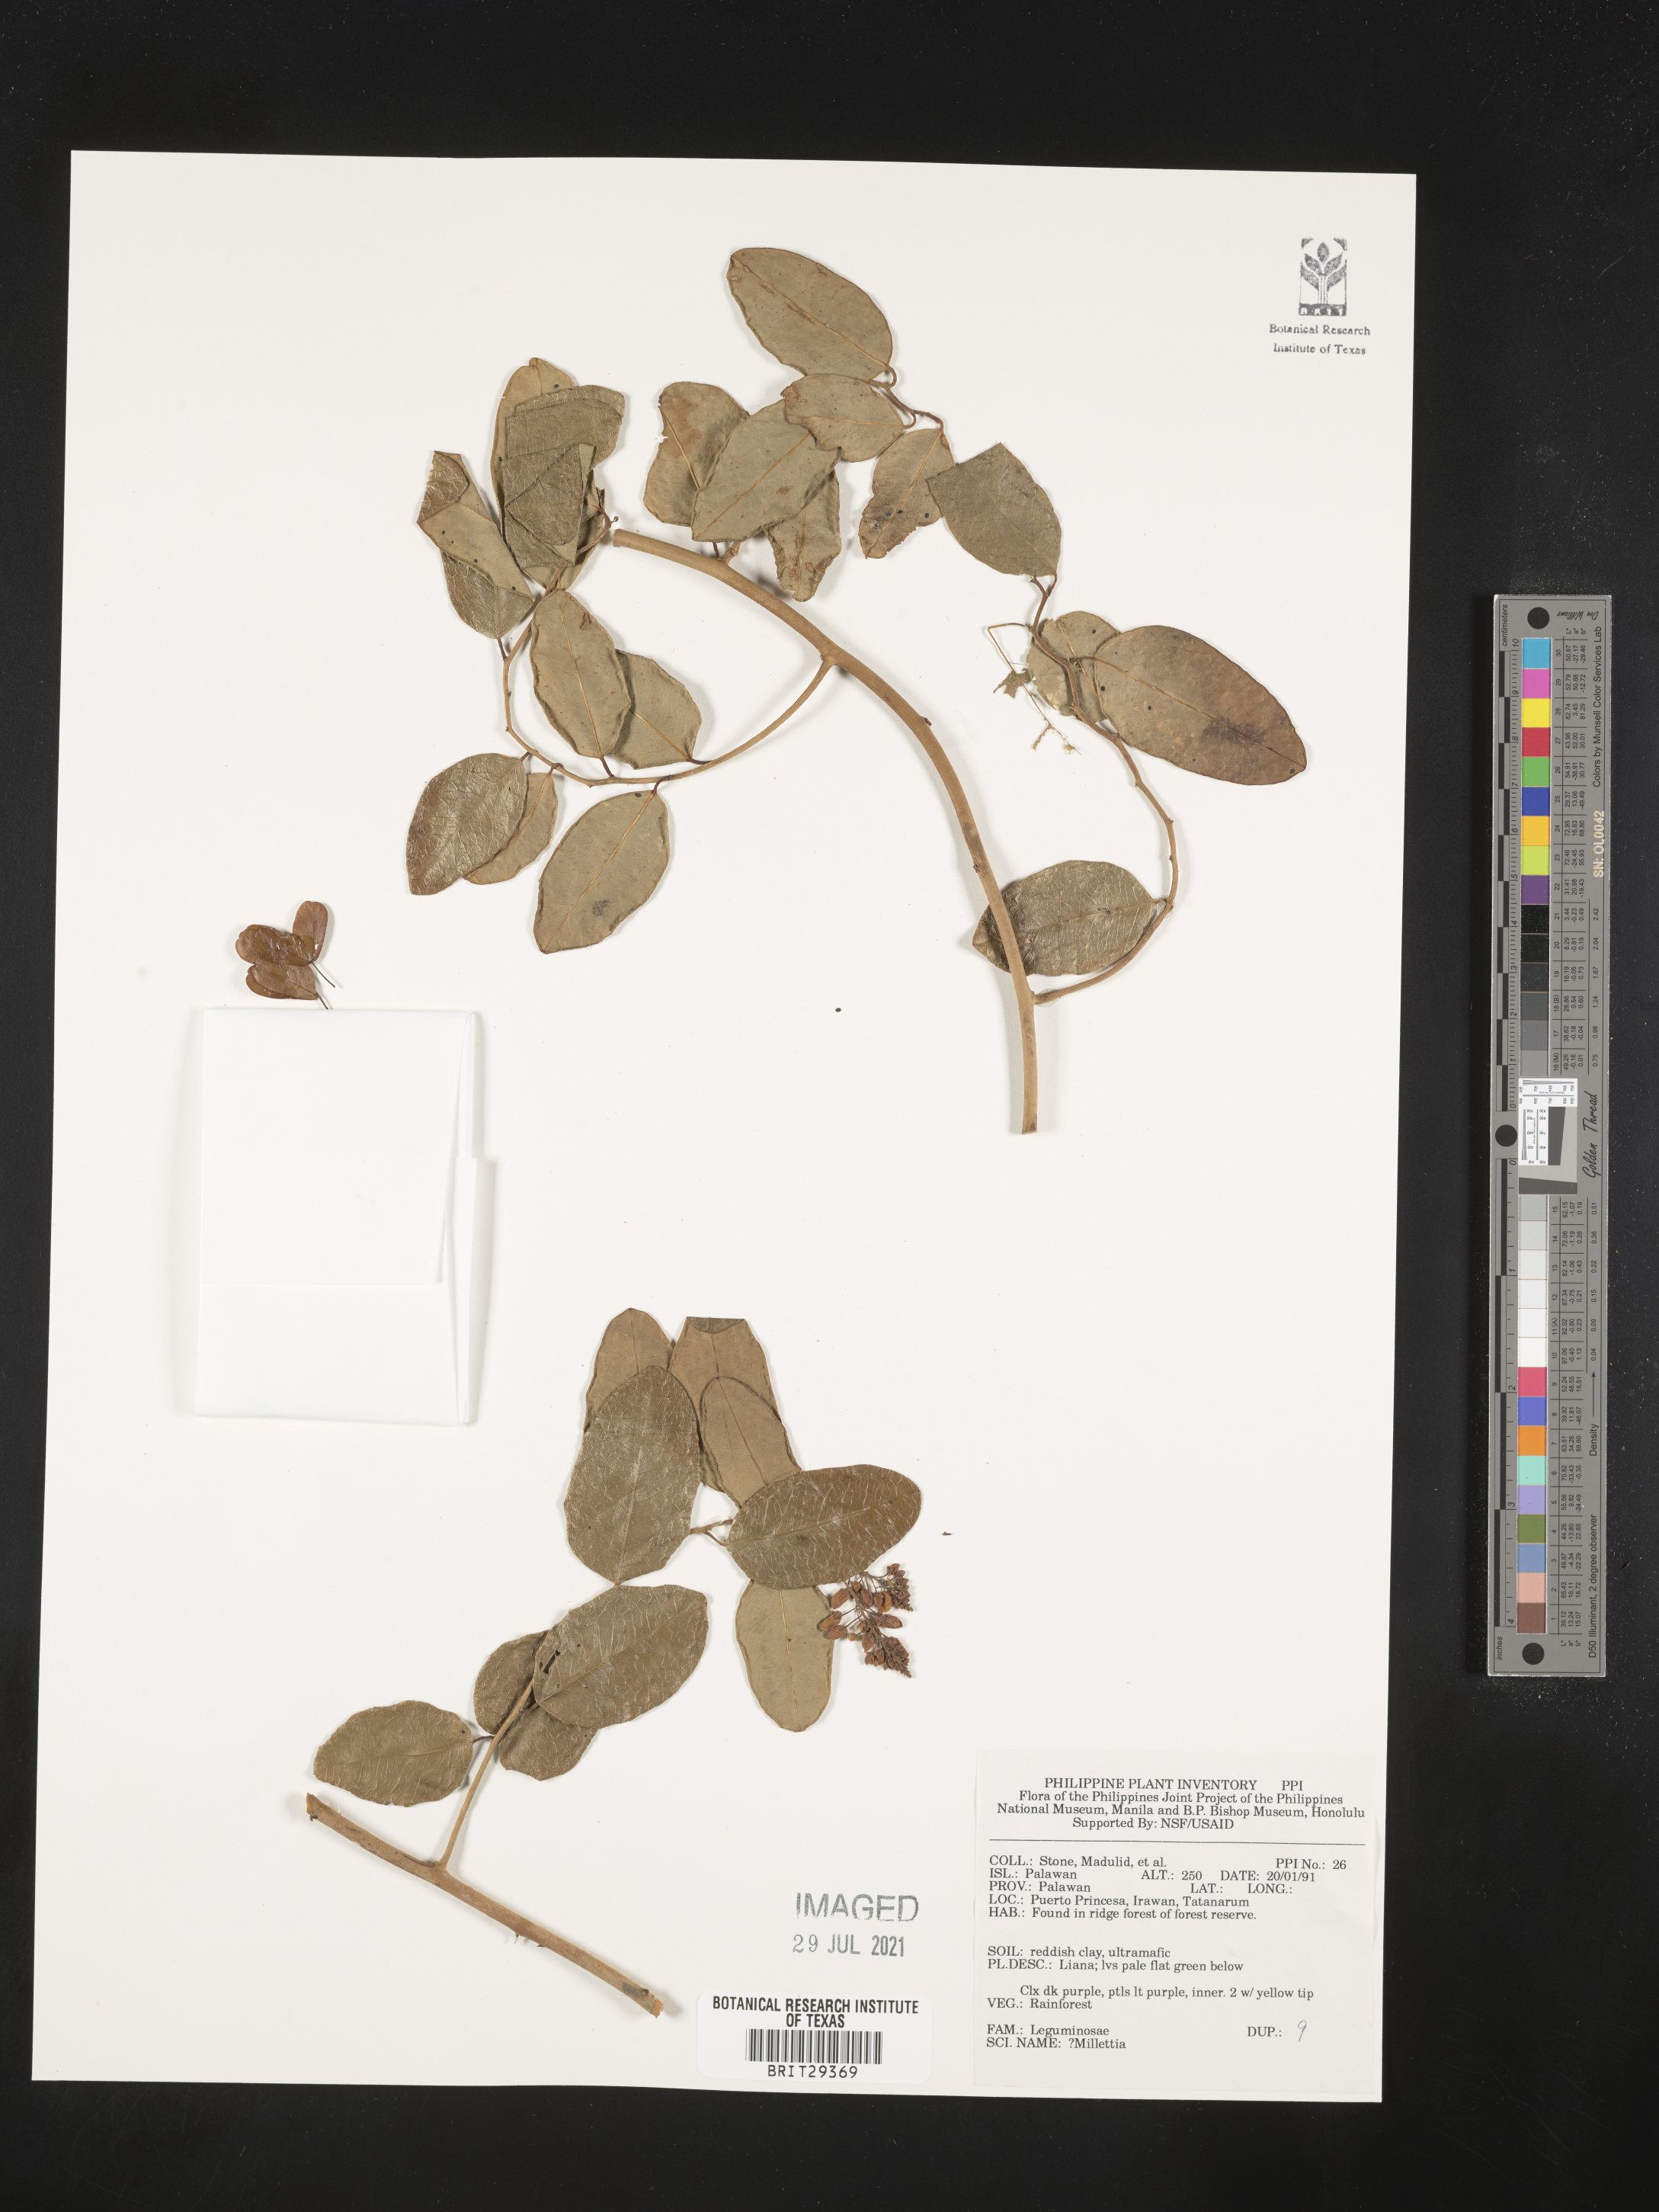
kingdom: Plantae
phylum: Tracheophyta
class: Magnoliopsida
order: Fabales
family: Fabaceae
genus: Millettia
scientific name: Millettia
